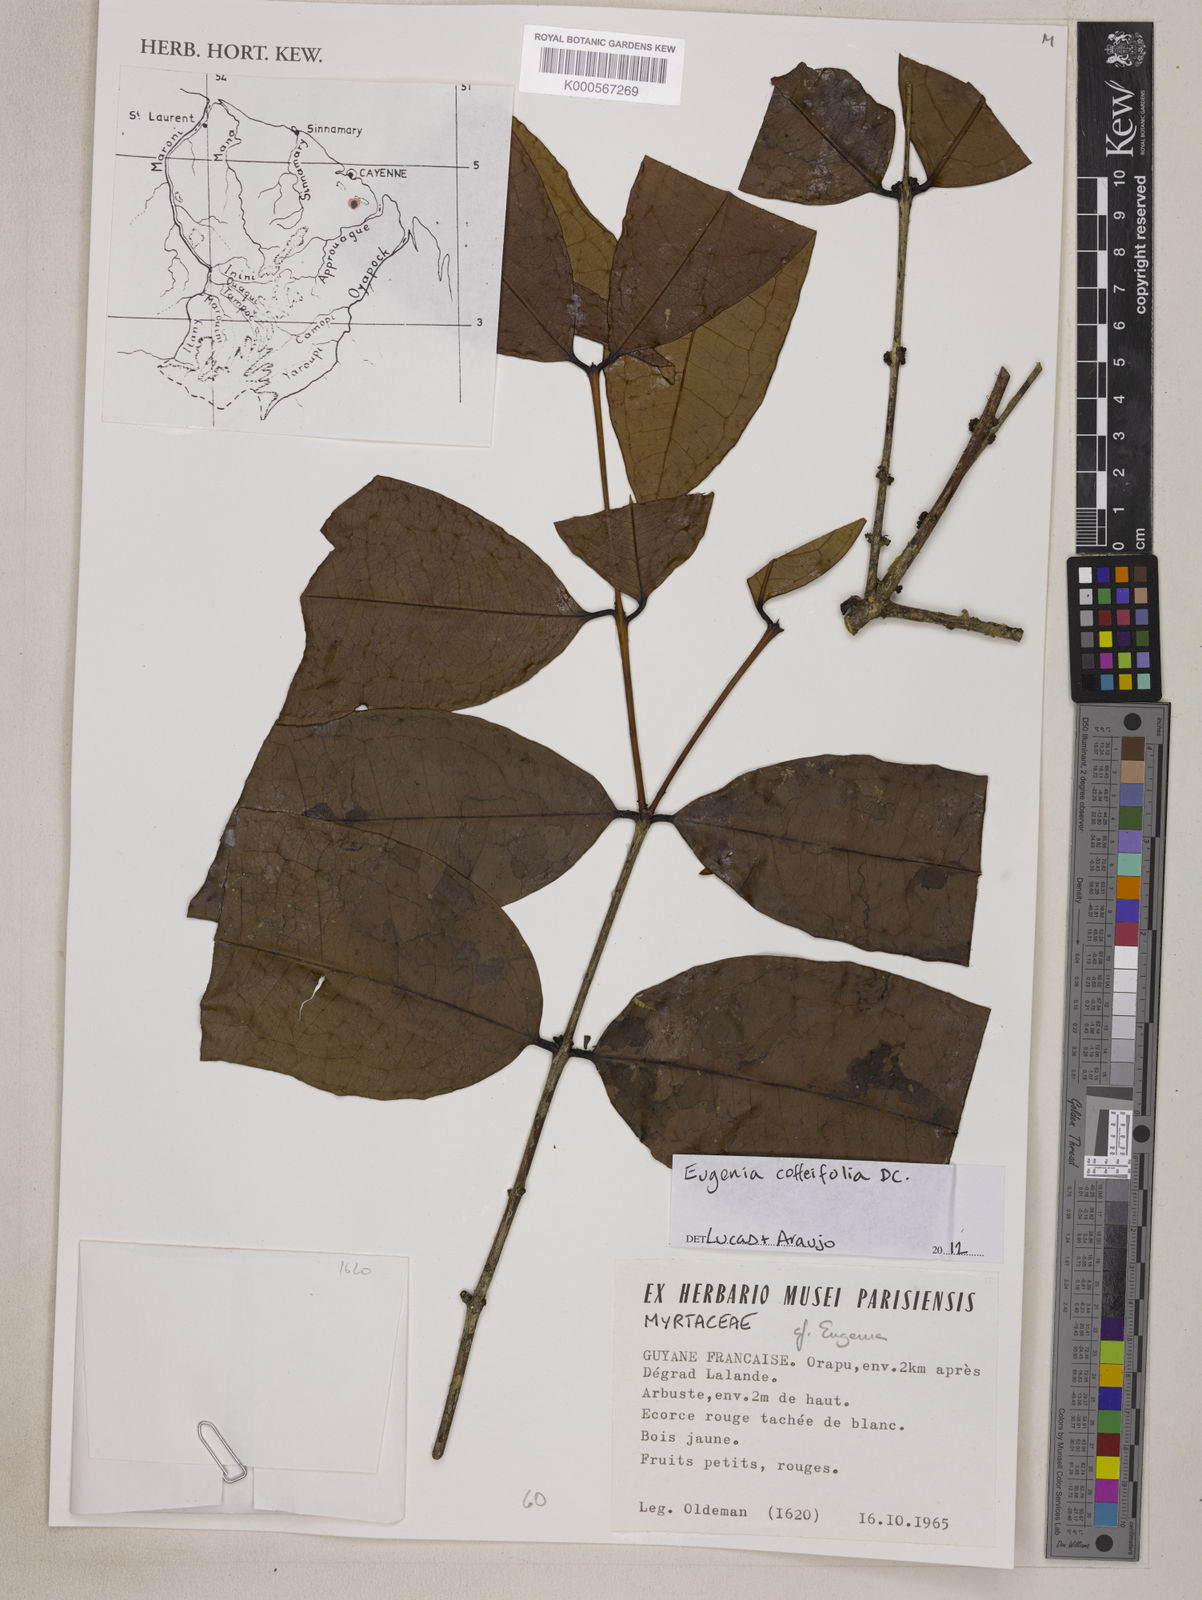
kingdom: Plantae
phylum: Tracheophyta
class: Magnoliopsida
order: Myrtales
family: Myrtaceae
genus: Eugenia
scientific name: Eugenia coffeifolia
